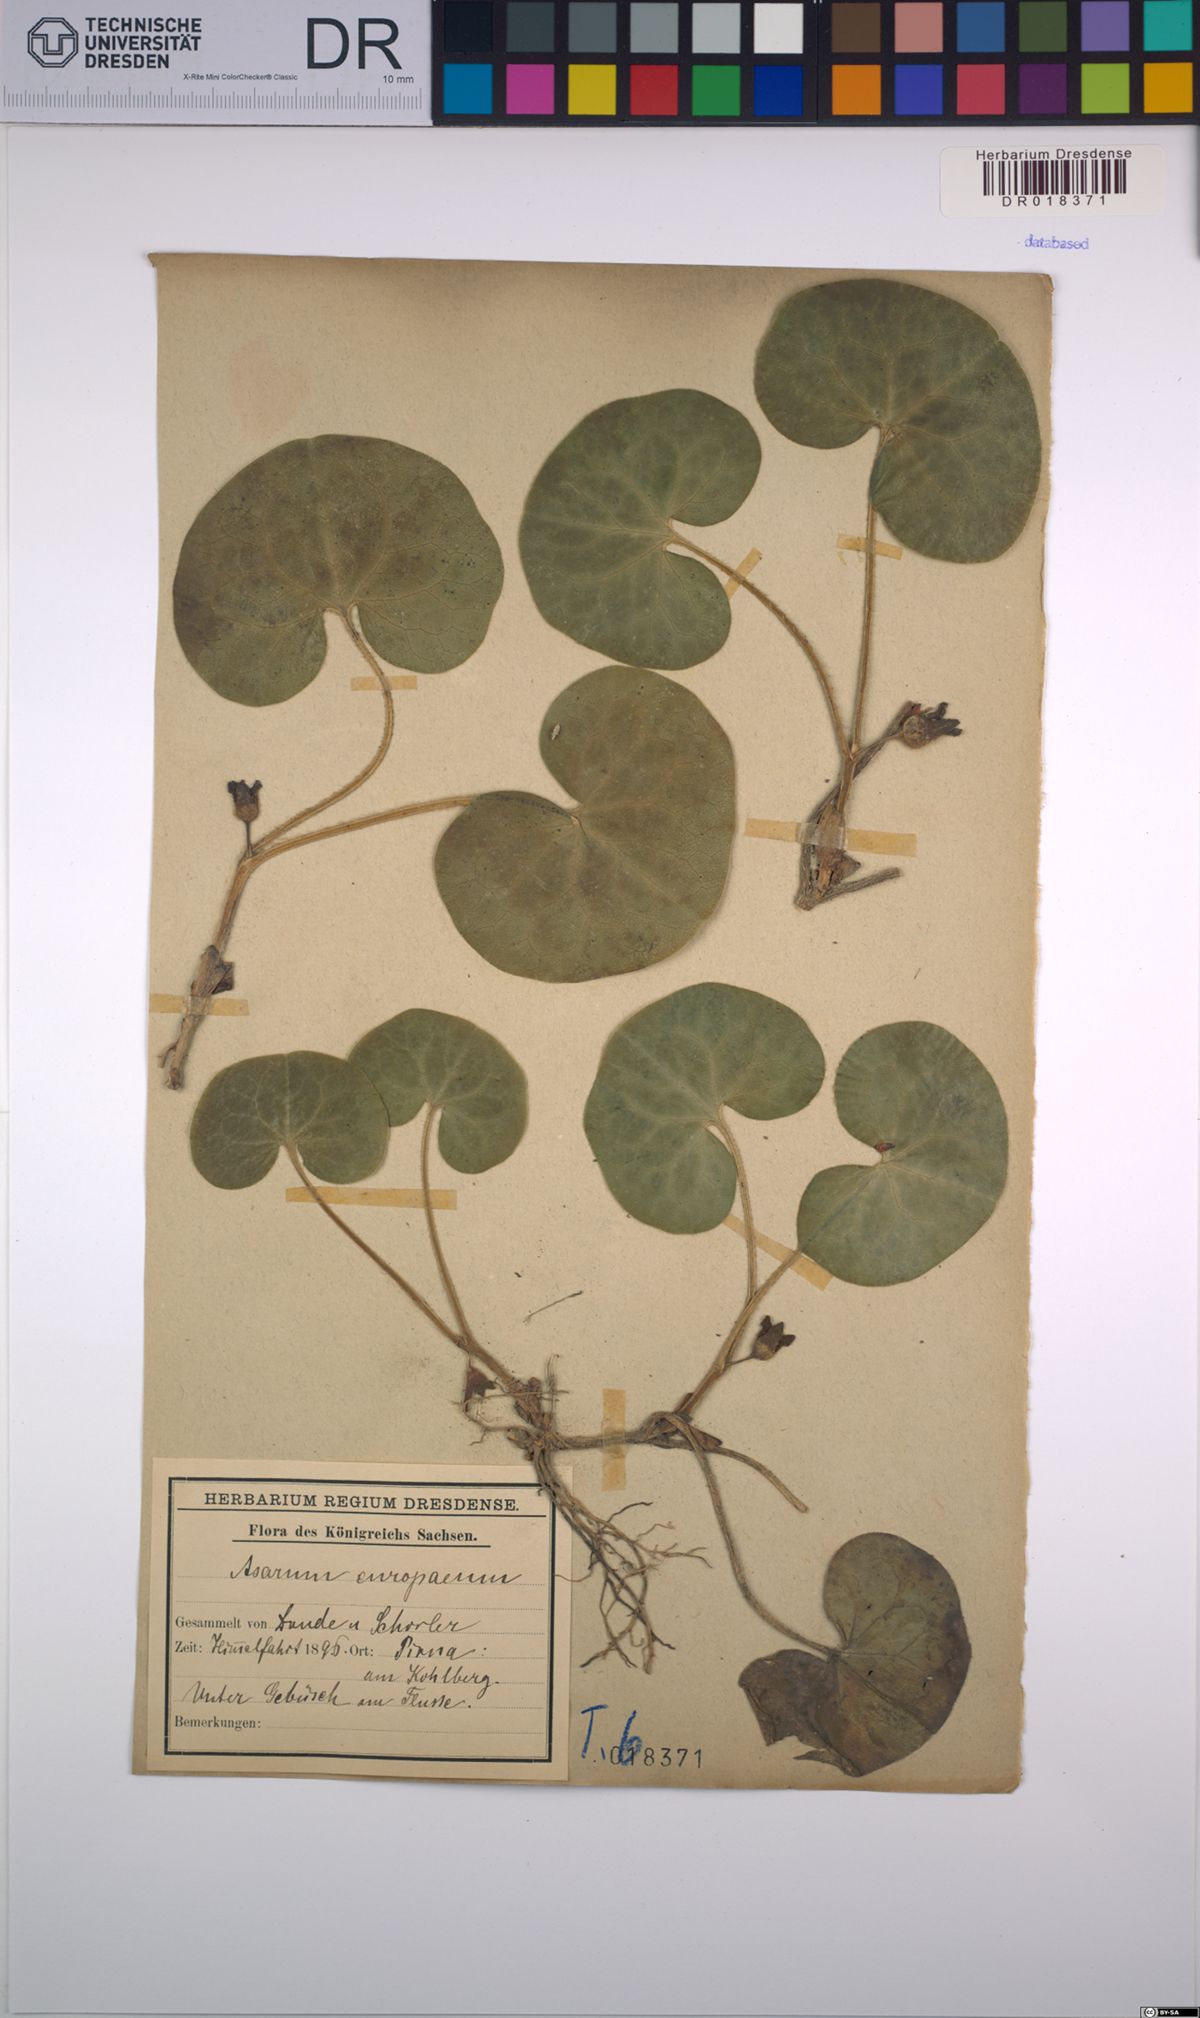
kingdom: Plantae
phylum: Tracheophyta
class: Magnoliopsida
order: Piperales
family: Aristolochiaceae
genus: Asarum
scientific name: Asarum europaeum
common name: Asarabacca
